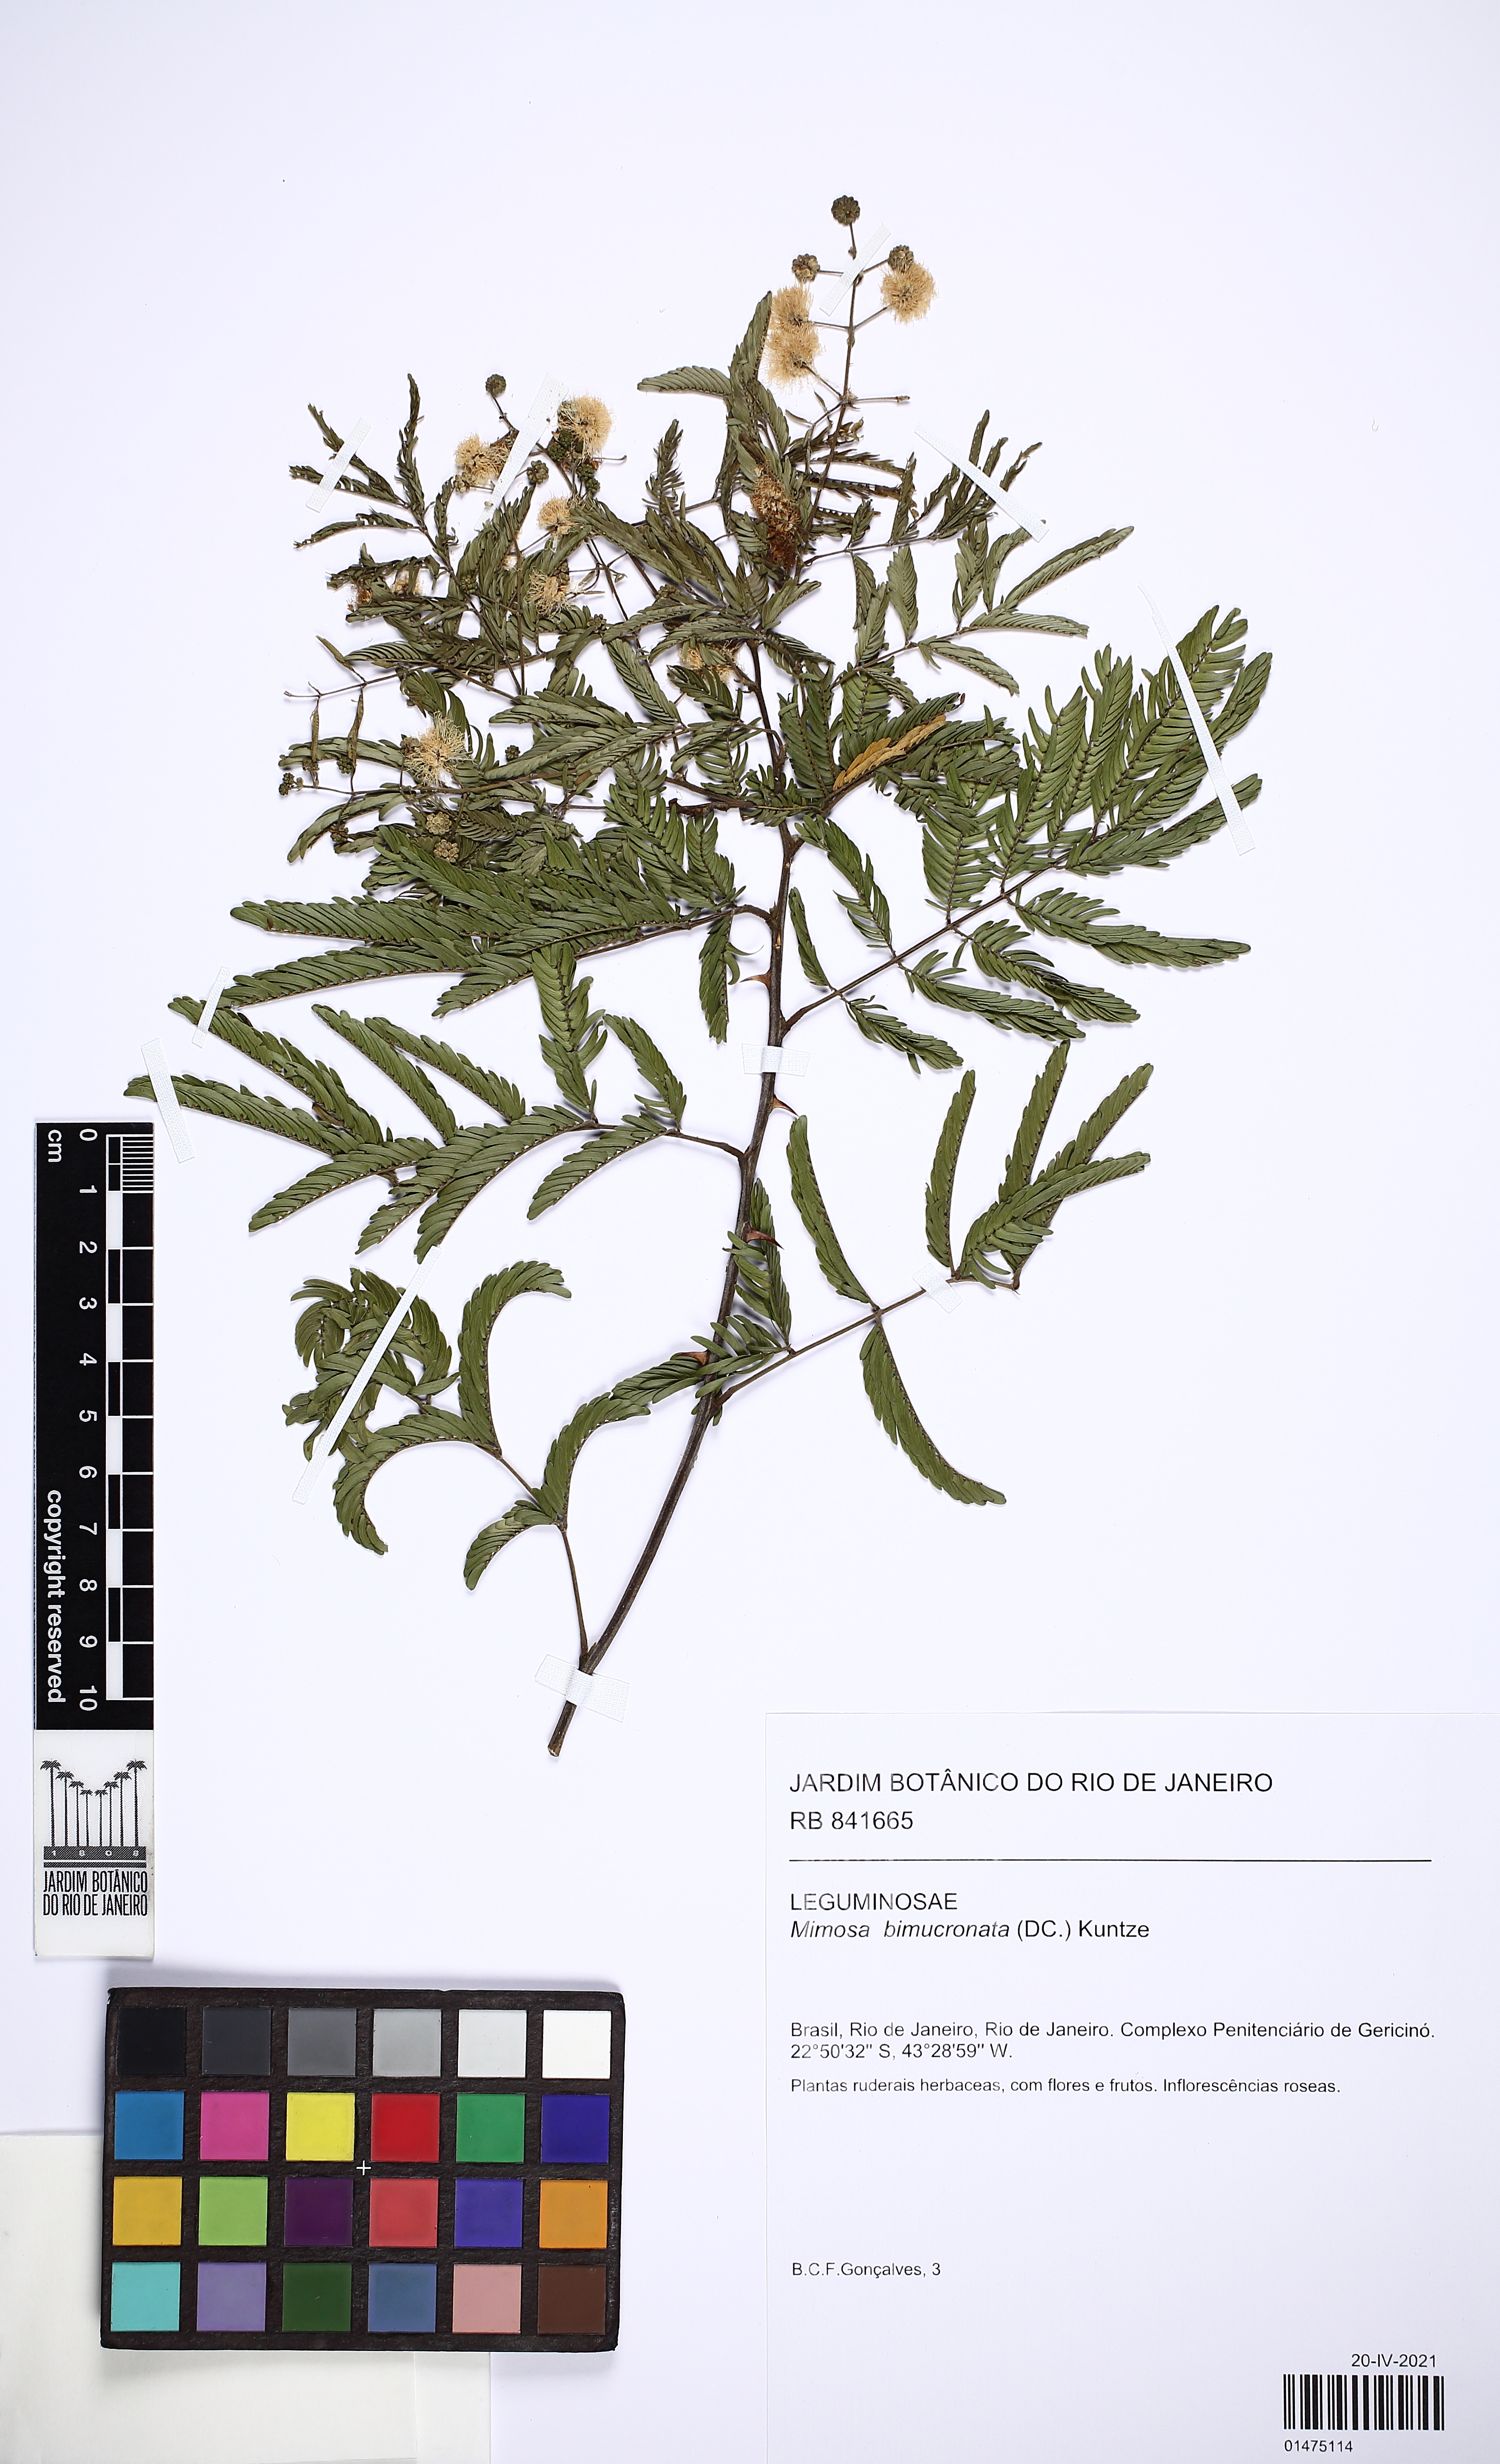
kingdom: Plantae
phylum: Tracheophyta
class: Magnoliopsida
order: Fabales
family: Fabaceae
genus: Mimosa
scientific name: Mimosa bimucronata
